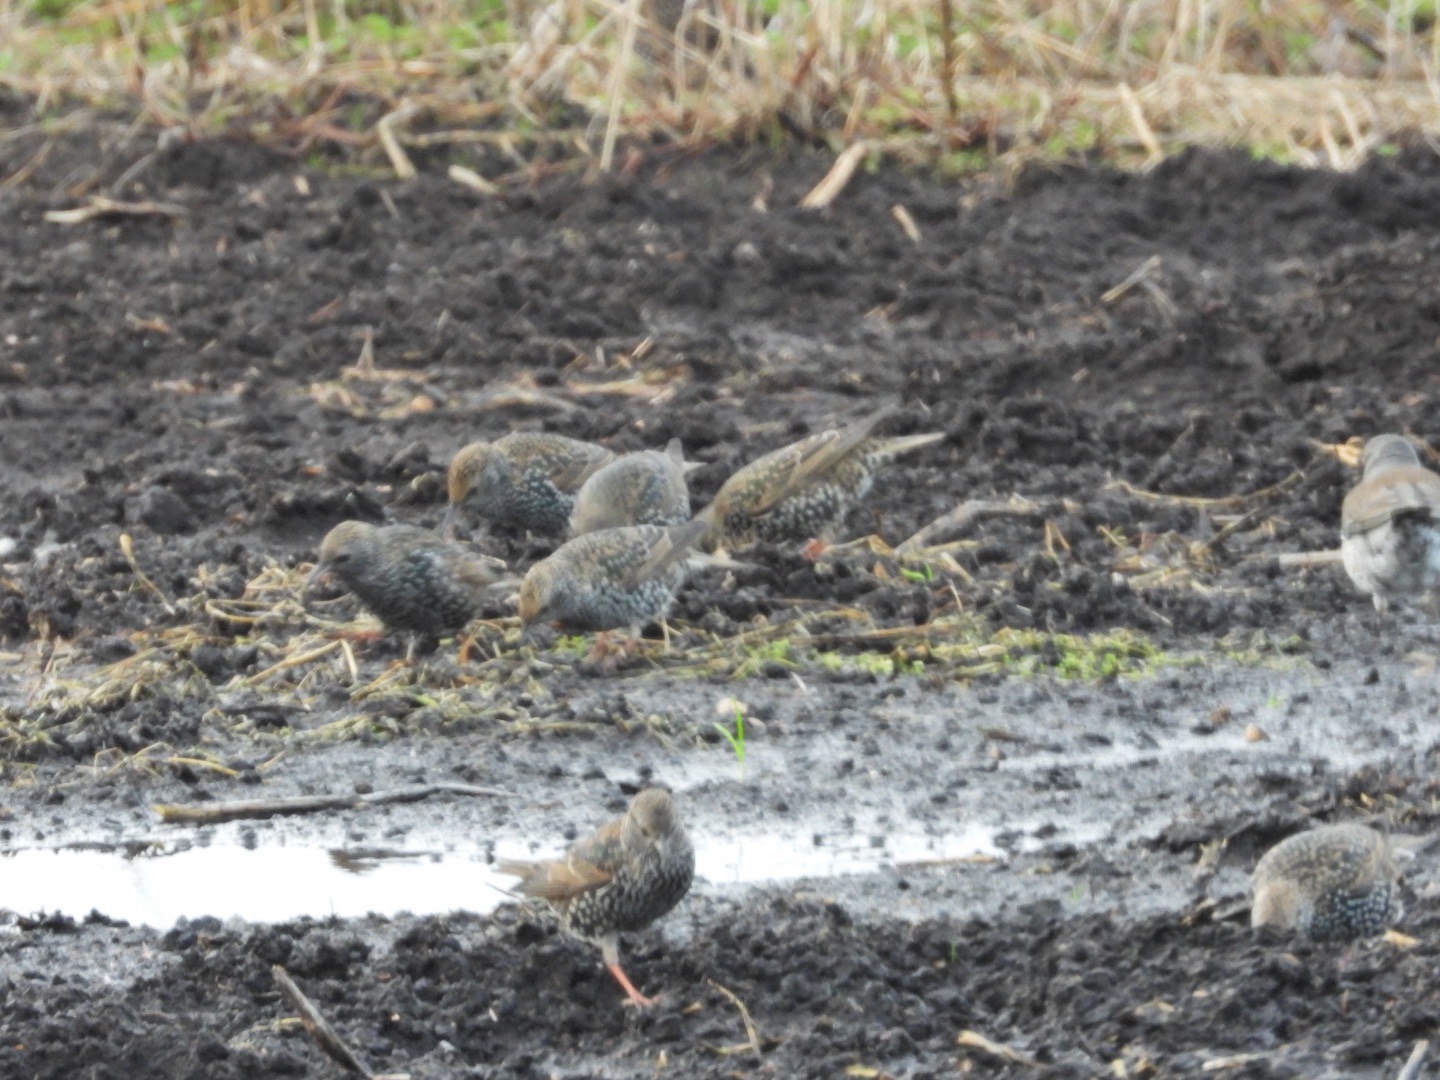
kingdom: Animalia
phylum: Chordata
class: Aves
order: Passeriformes
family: Sturnidae
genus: Sturnus
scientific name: Sturnus vulgaris
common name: Stær
